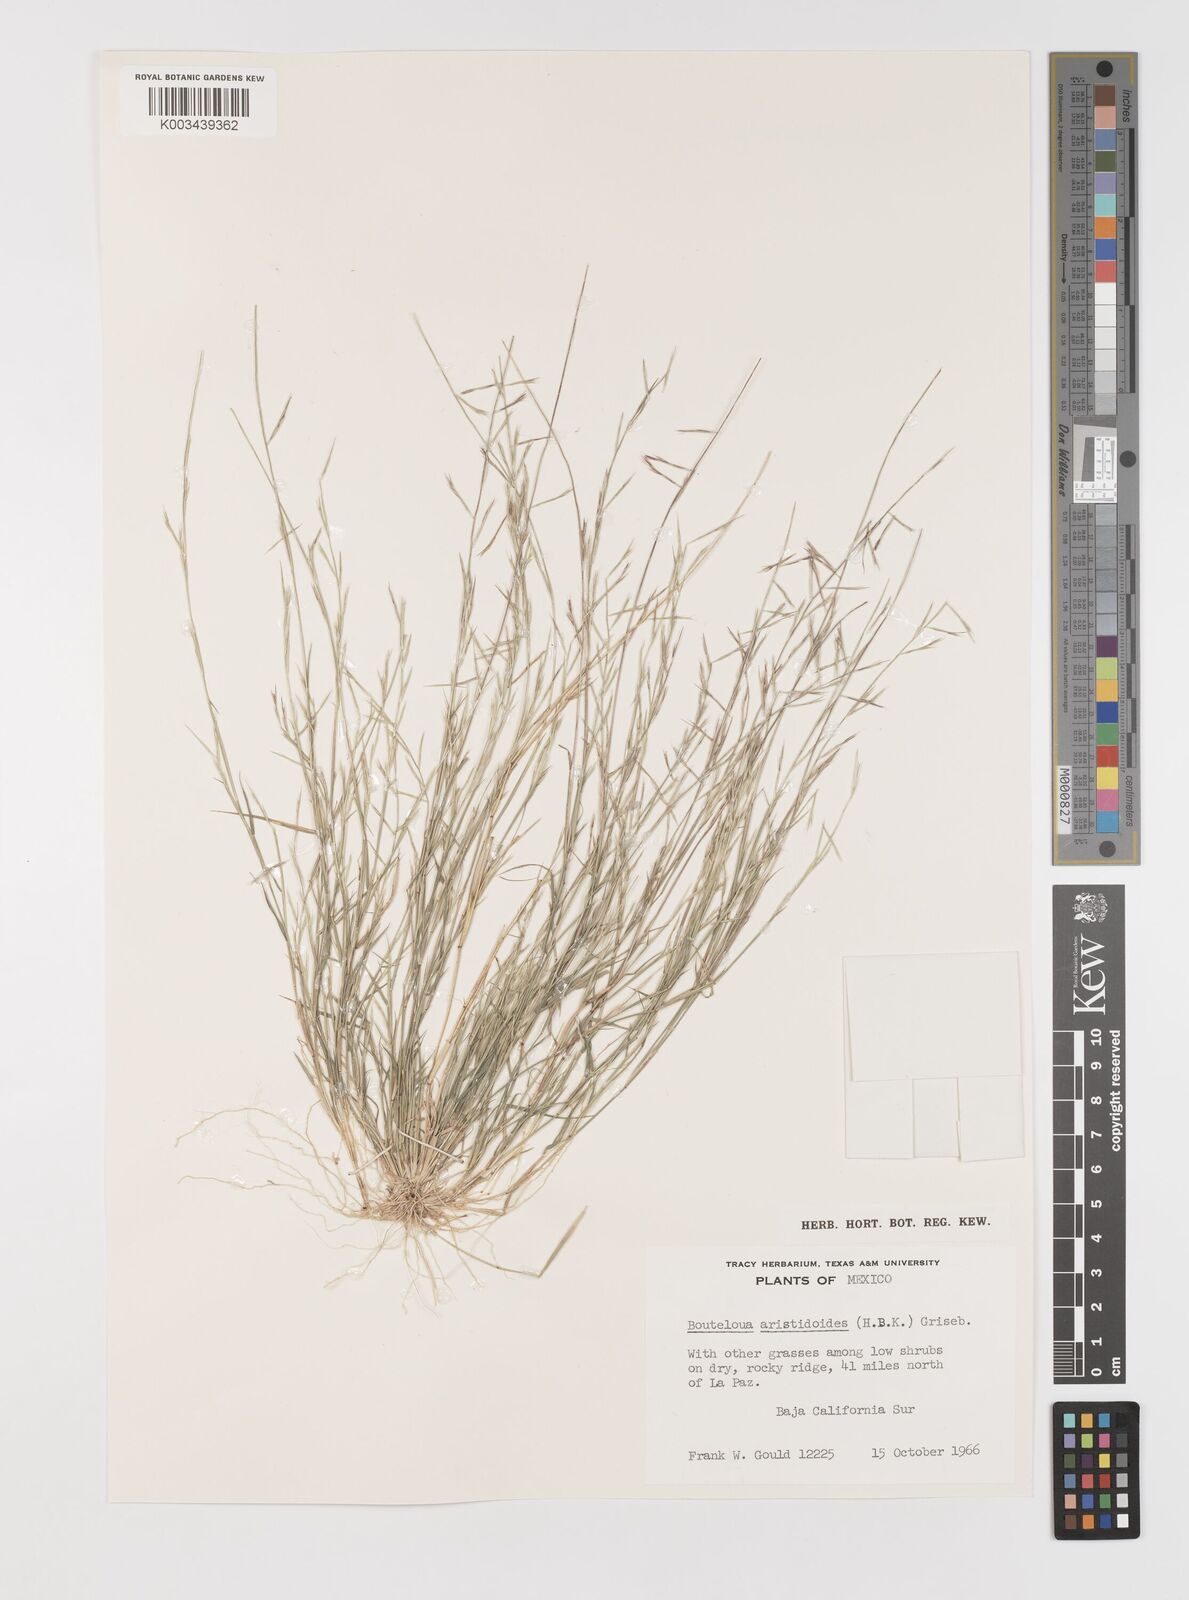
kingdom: Plantae
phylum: Tracheophyta
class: Liliopsida
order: Poales
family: Poaceae
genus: Bouteloua
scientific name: Bouteloua aristidoides
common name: Needle grama
